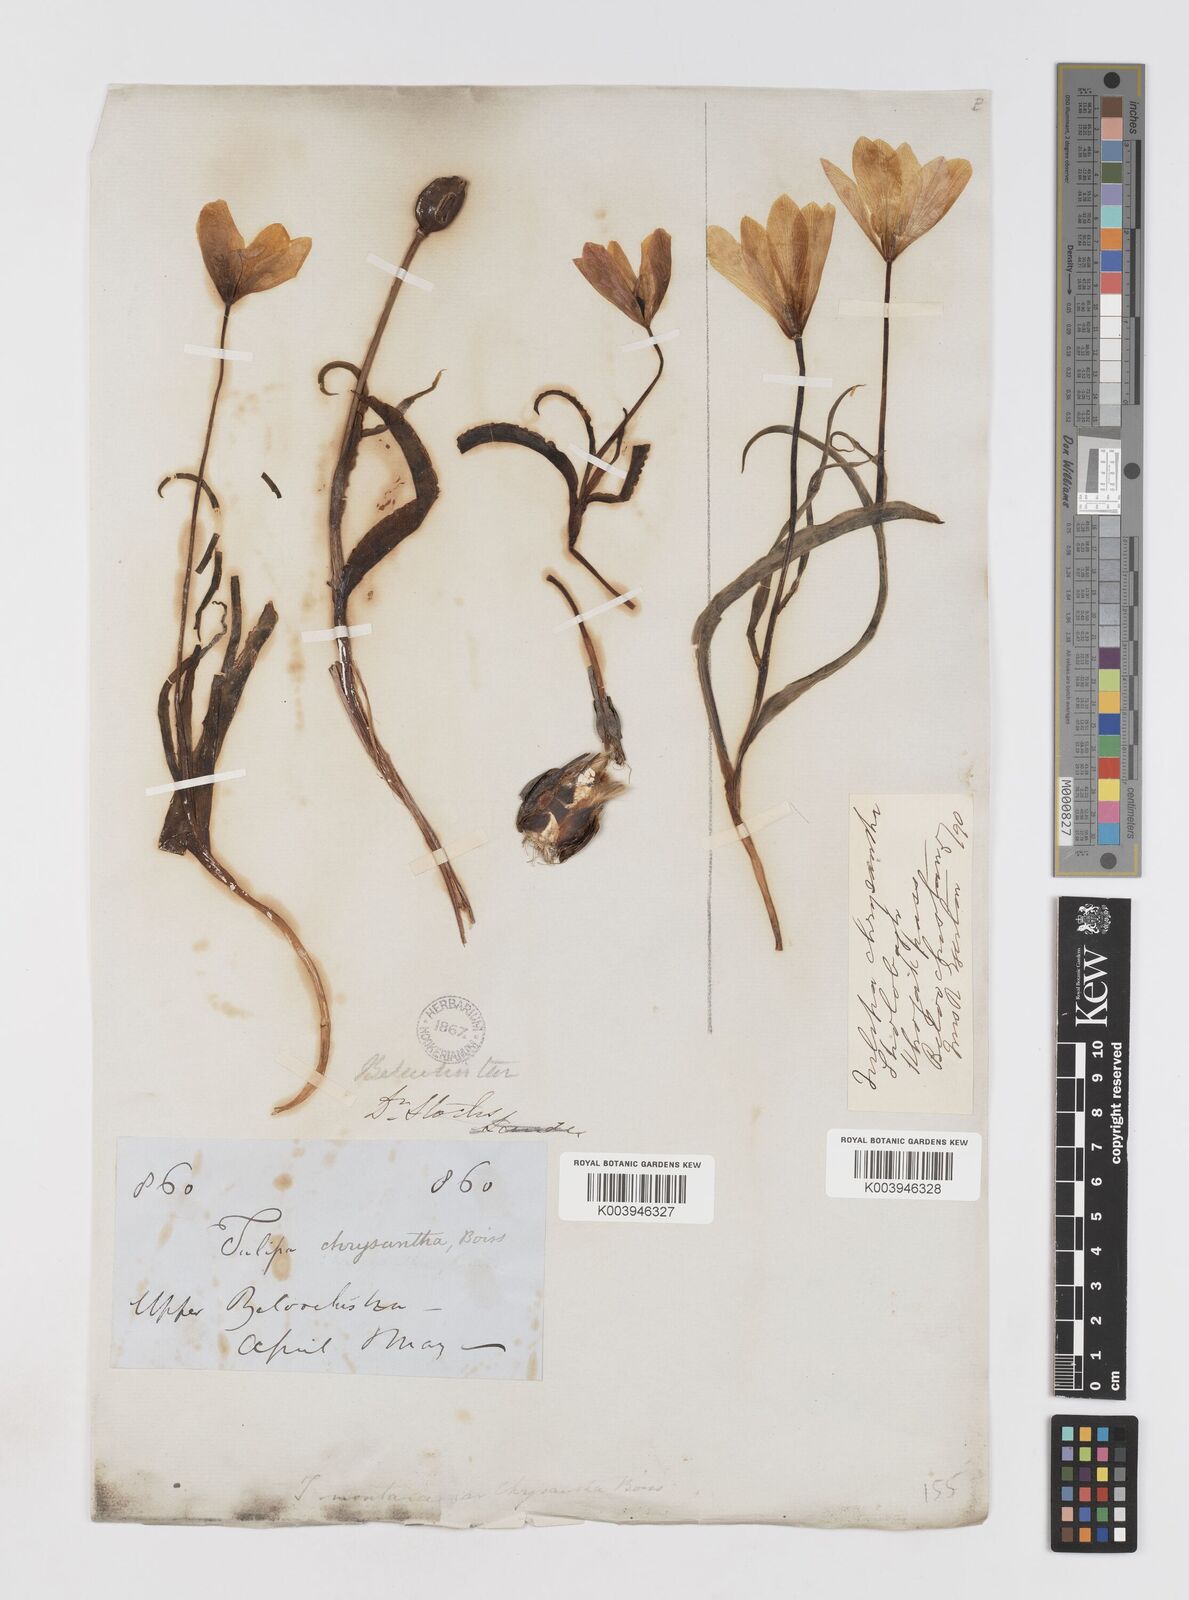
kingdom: Plantae
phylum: Tracheophyta
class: Liliopsida
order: Liliales
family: Liliaceae
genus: Tulipa
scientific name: Tulipa clusiana
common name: Lady tulip
